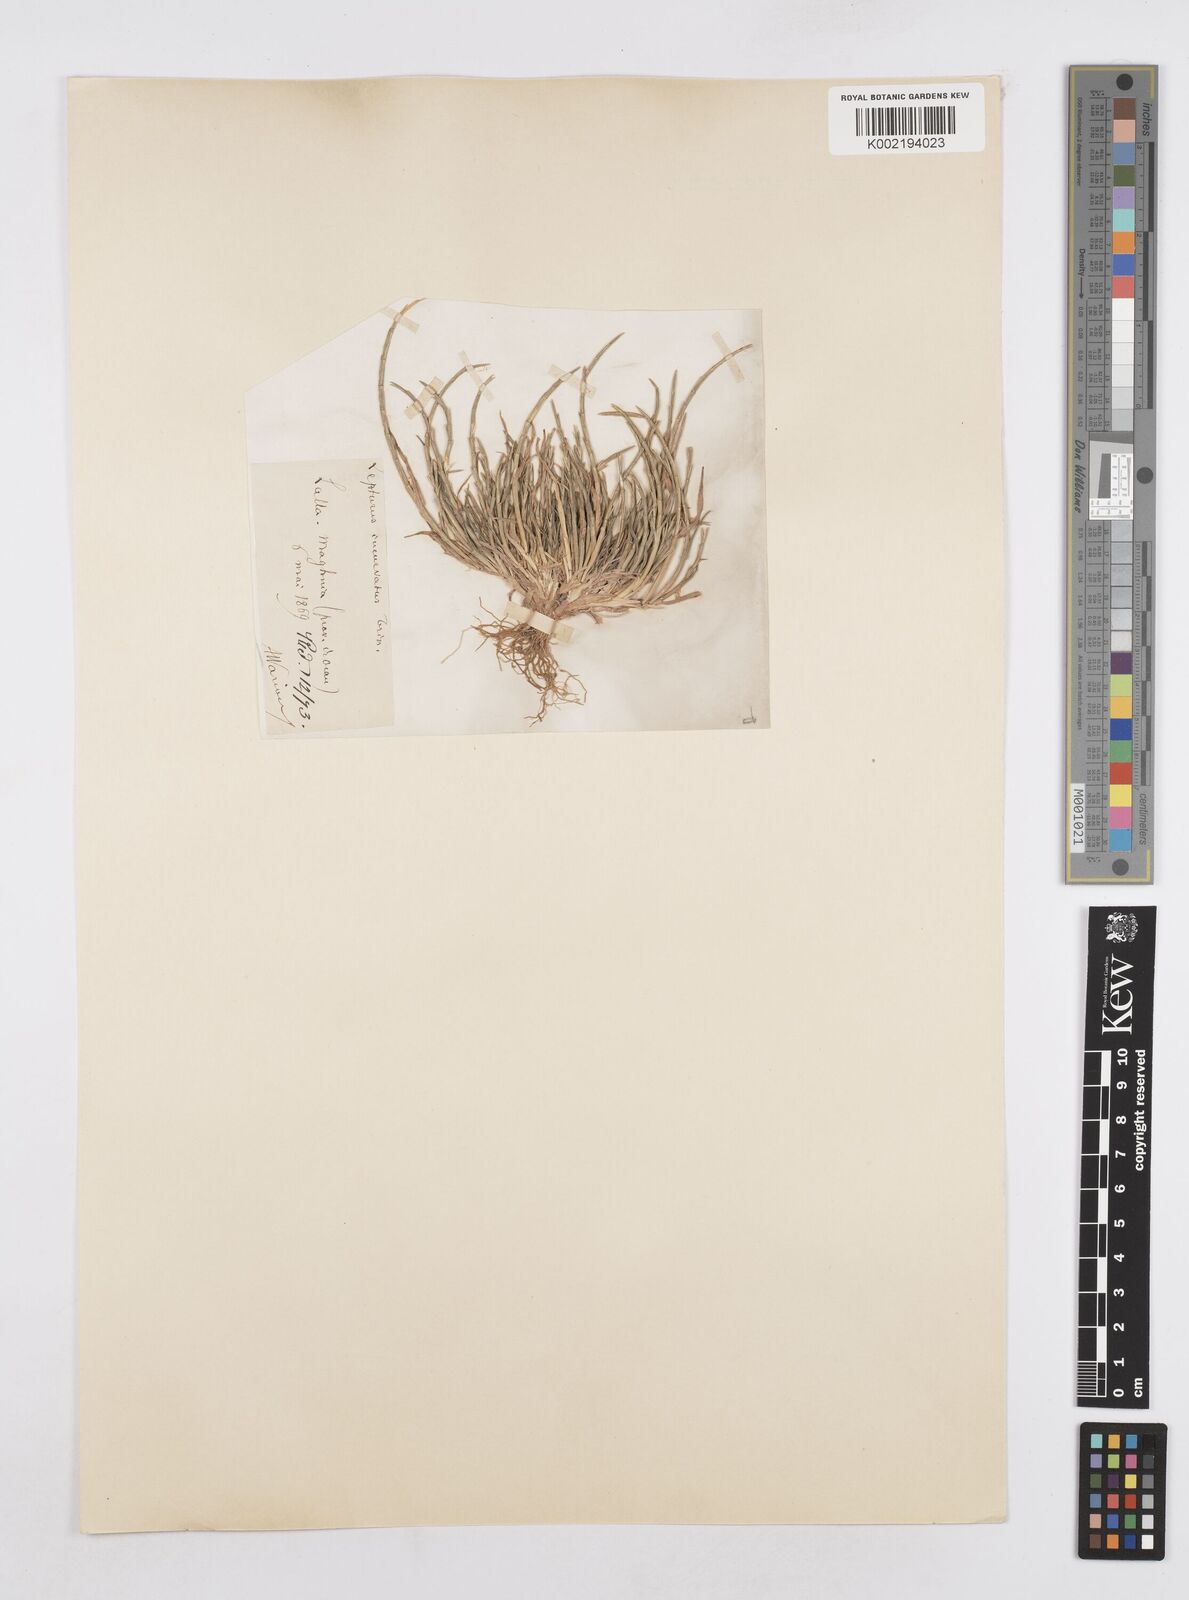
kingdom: Plantae
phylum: Tracheophyta
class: Liliopsida
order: Poales
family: Poaceae
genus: Parapholis
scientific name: Parapholis incurva
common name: Curved sicklegrass
